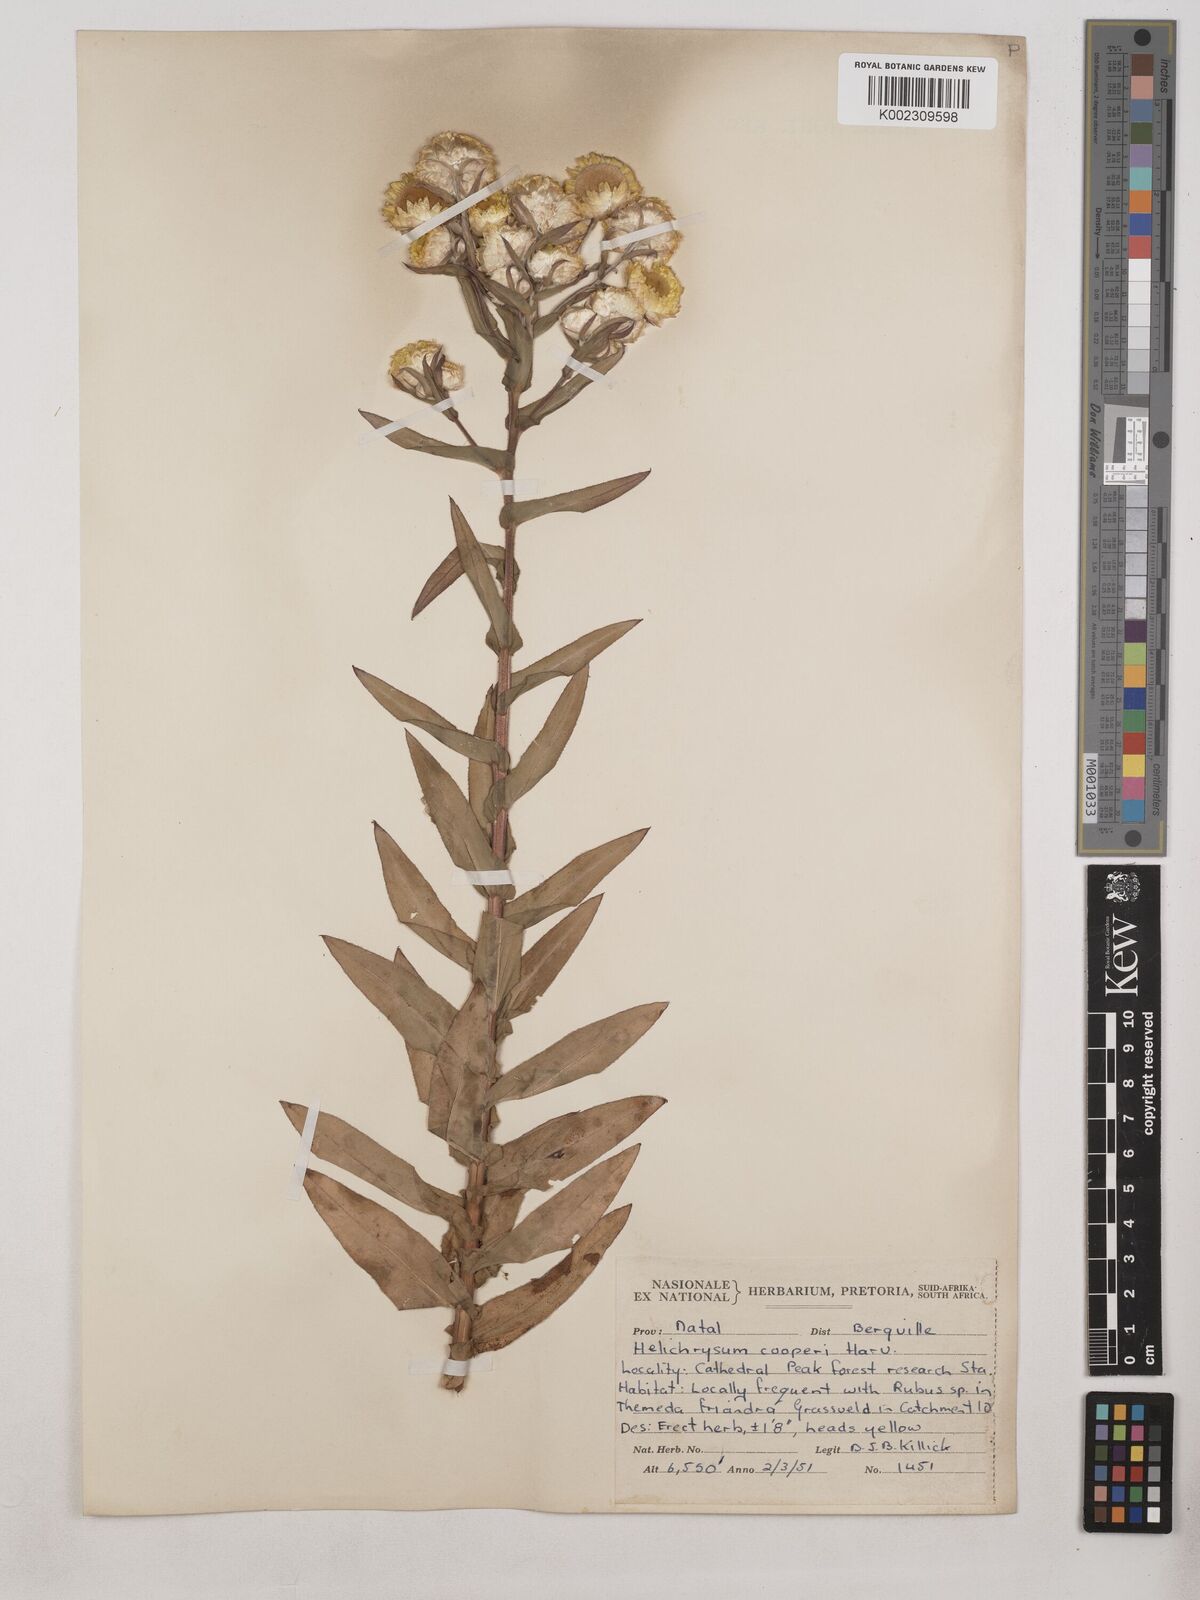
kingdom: Plantae
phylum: Tracheophyta
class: Magnoliopsida
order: Asterales
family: Asteraceae
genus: Helichrysum
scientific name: Helichrysum cooperi
